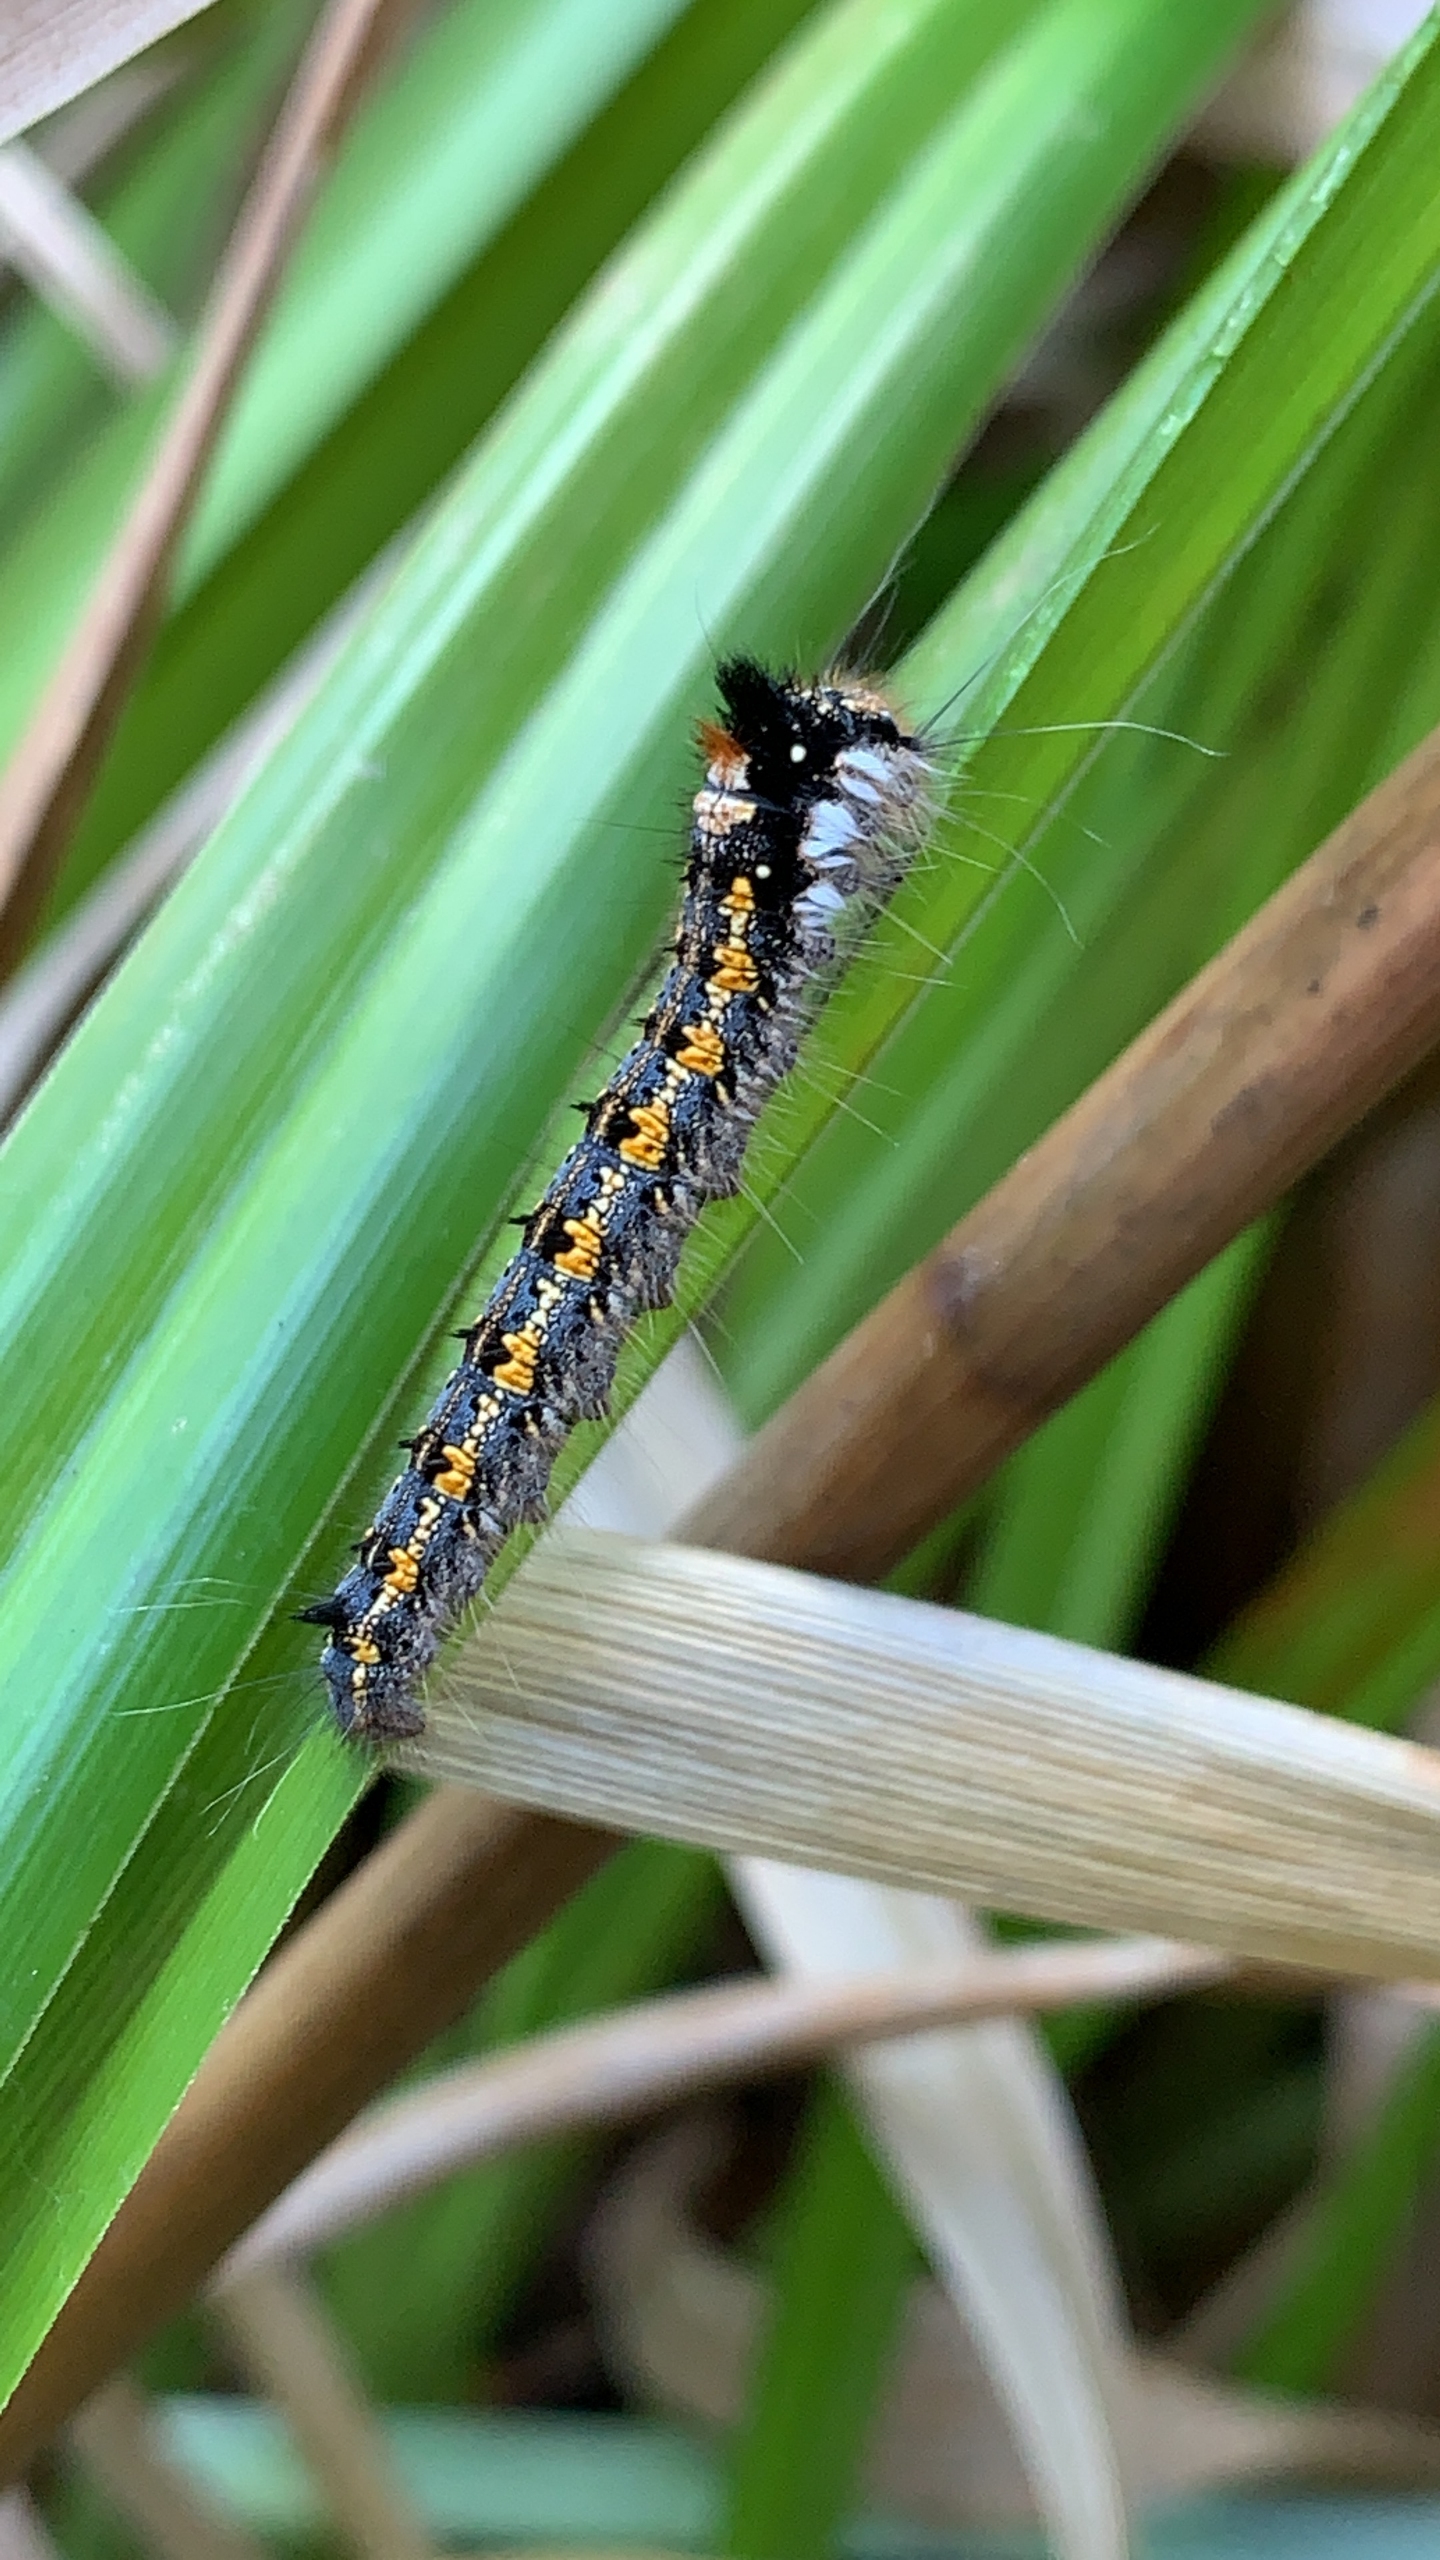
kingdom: Animalia
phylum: Arthropoda
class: Insecta
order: Lepidoptera
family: Lasiocampidae
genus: Euthrix
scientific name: Euthrix potatoria
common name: Græsspinder
